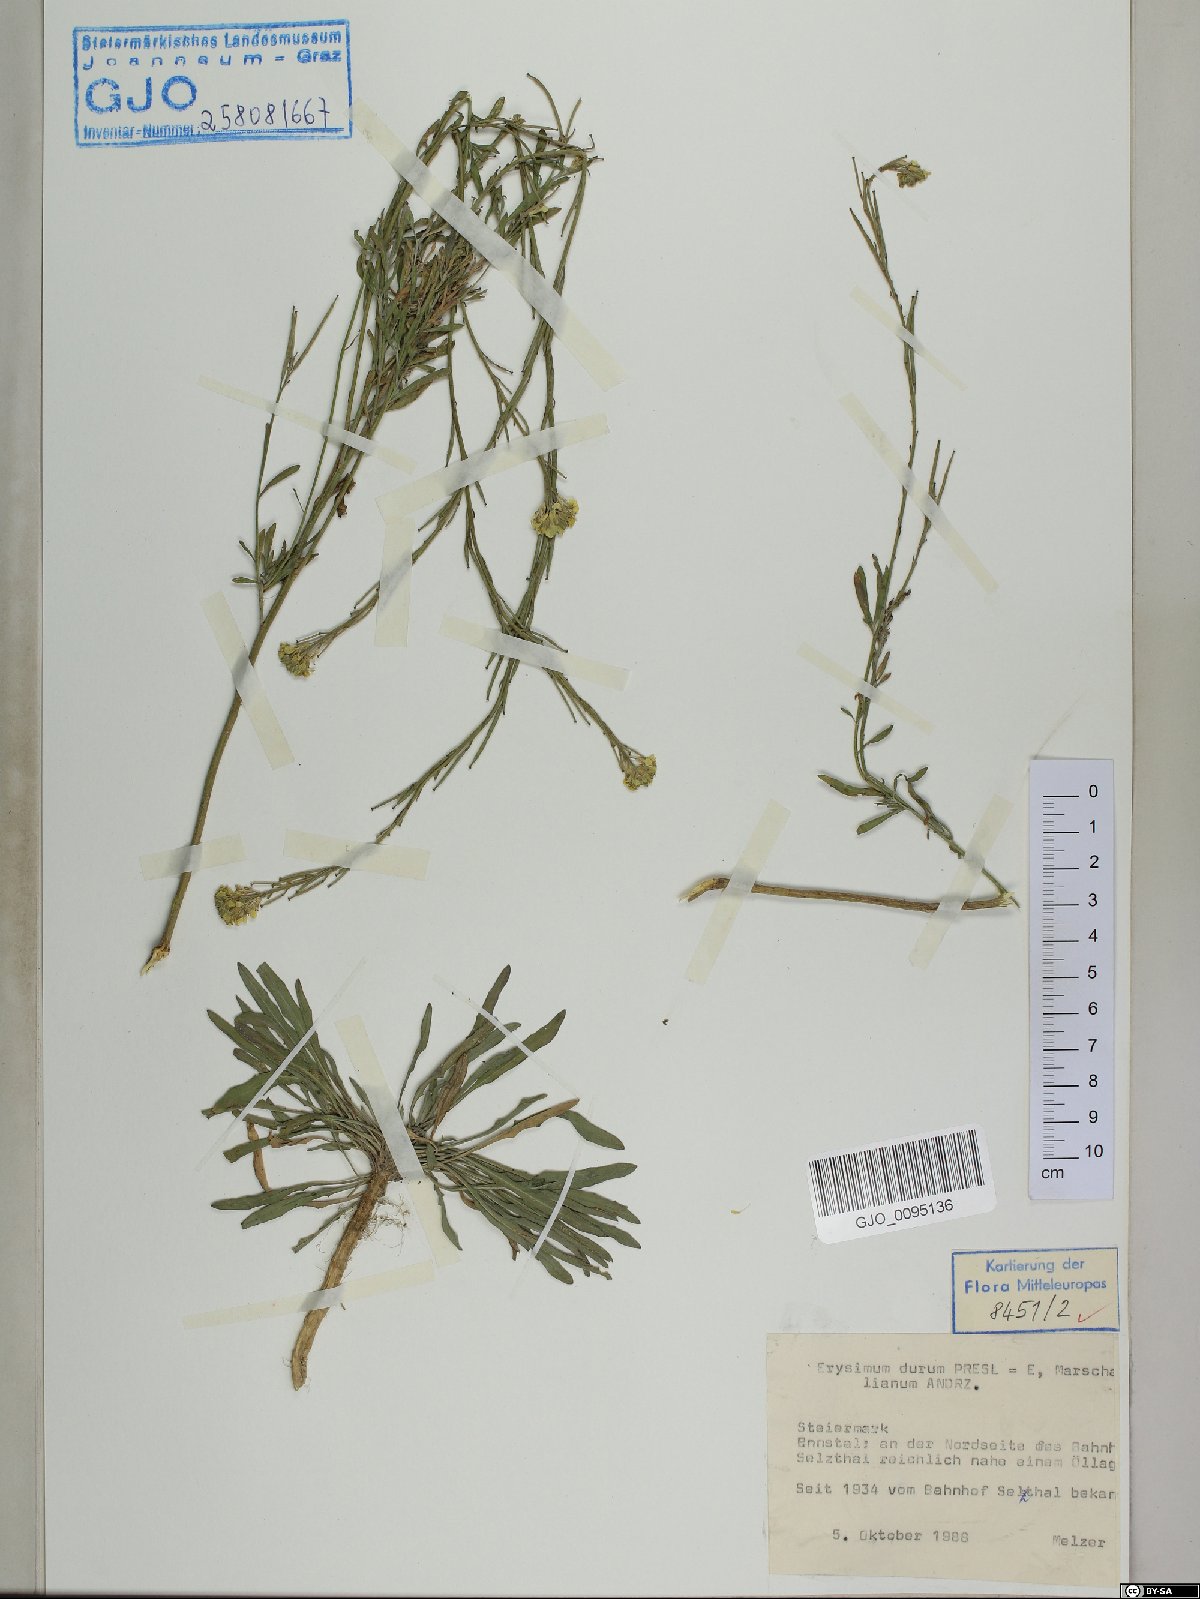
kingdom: Plantae
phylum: Tracheophyta
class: Magnoliopsida
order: Brassicales
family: Brassicaceae
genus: Erysimum
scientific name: Erysimum marschallianum
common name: Hard wallflower
